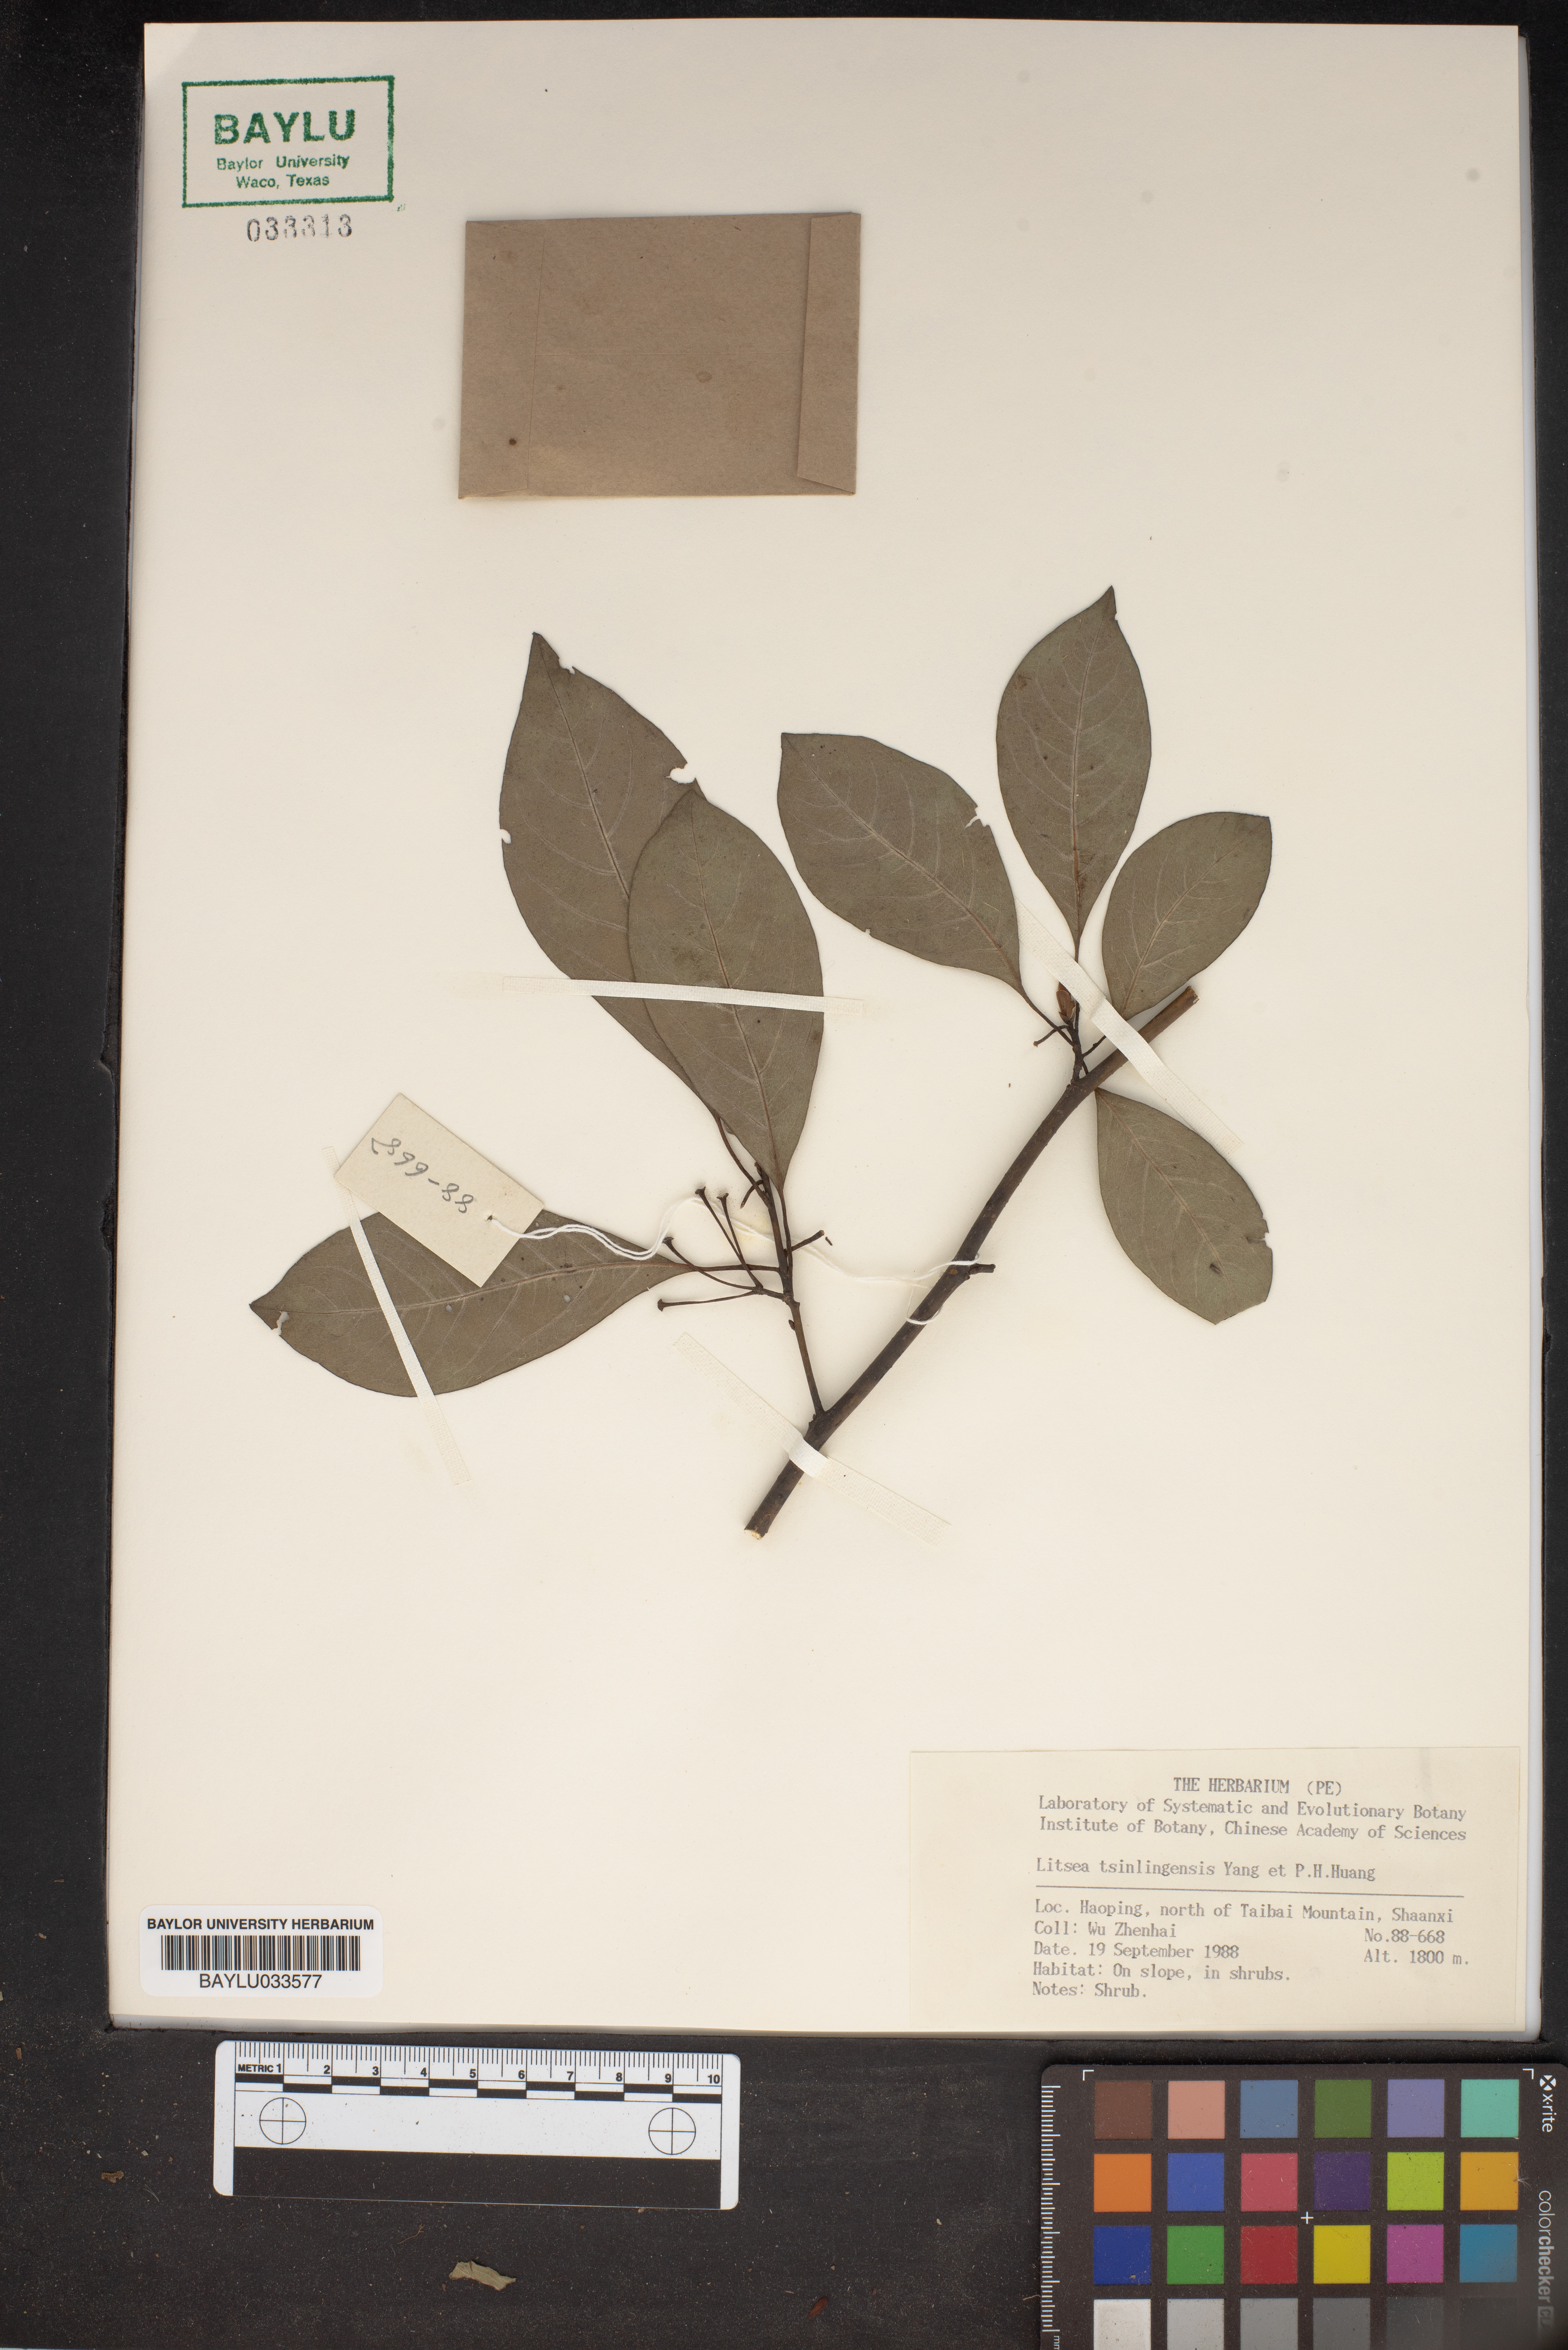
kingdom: Plantae
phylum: Tracheophyta
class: Magnoliopsida
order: Laurales
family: Lauraceae
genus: Litsea
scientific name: Litsea tsinlingensis
